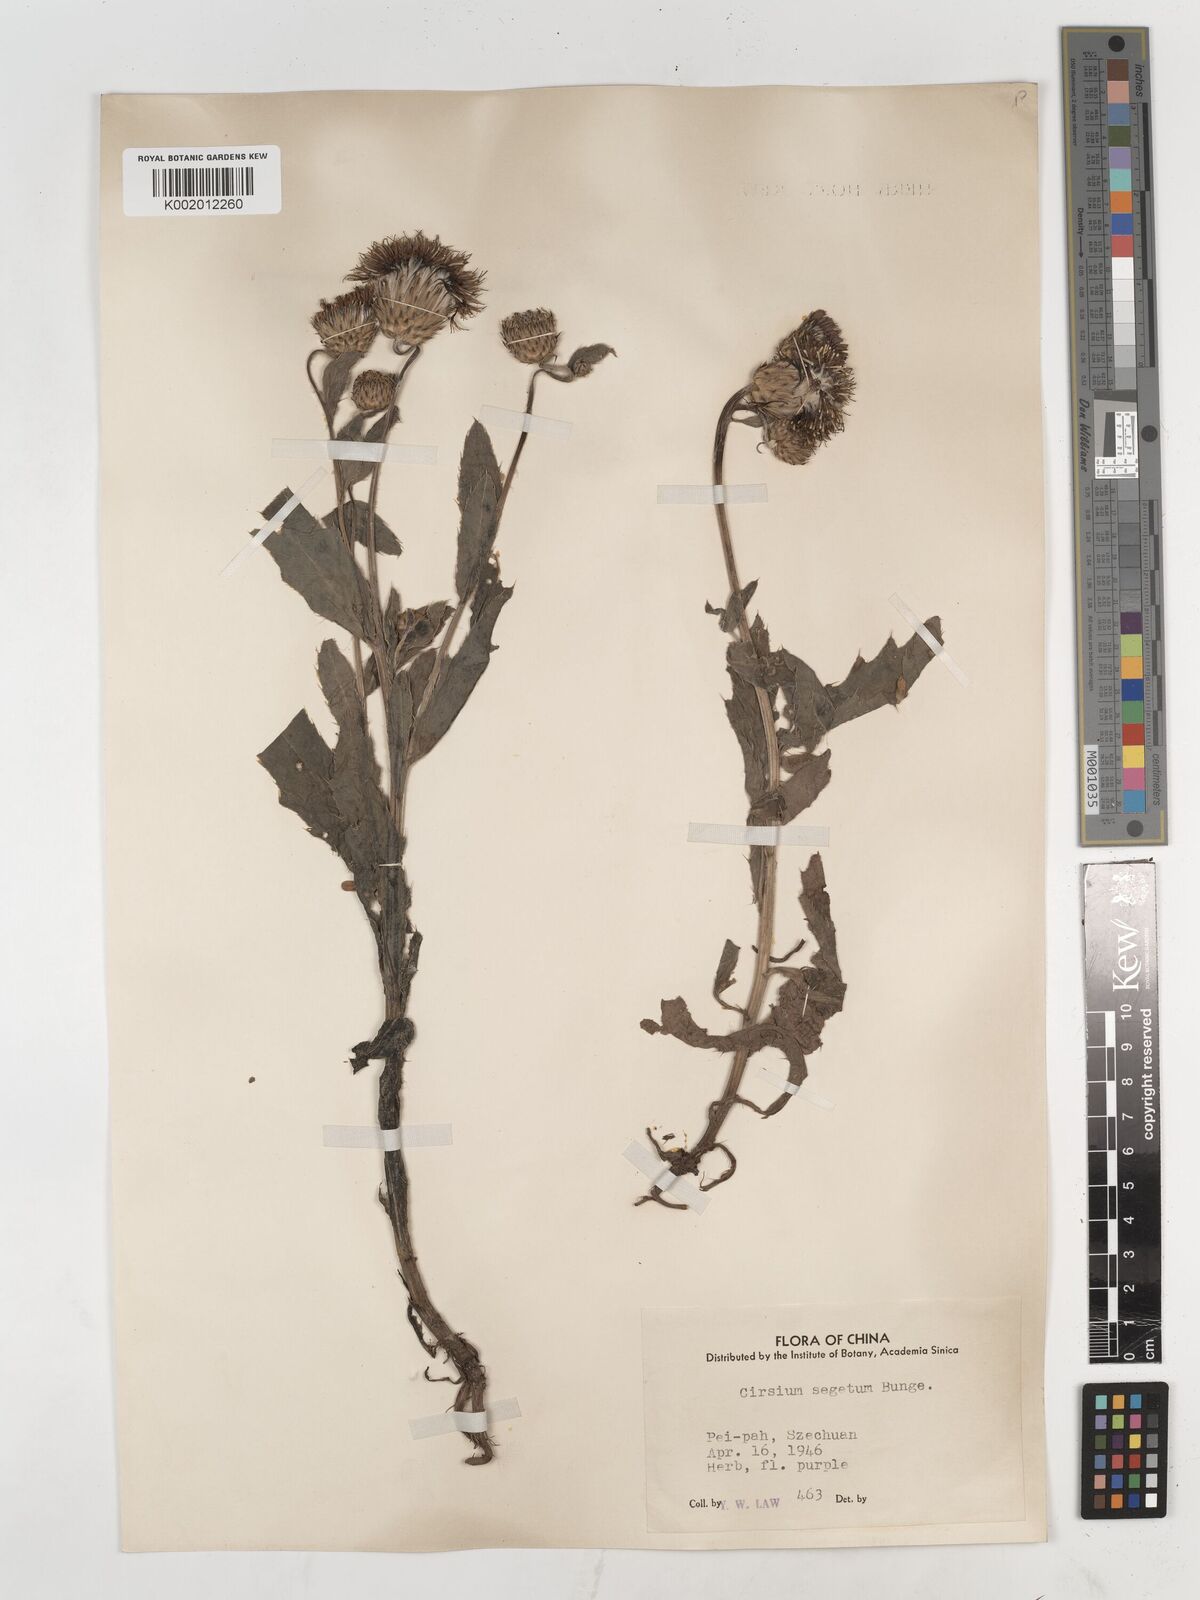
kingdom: Plantae
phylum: Tracheophyta
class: Magnoliopsida
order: Asterales
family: Asteraceae
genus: Cirsium
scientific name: Cirsium arvense
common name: Creeping thistle
